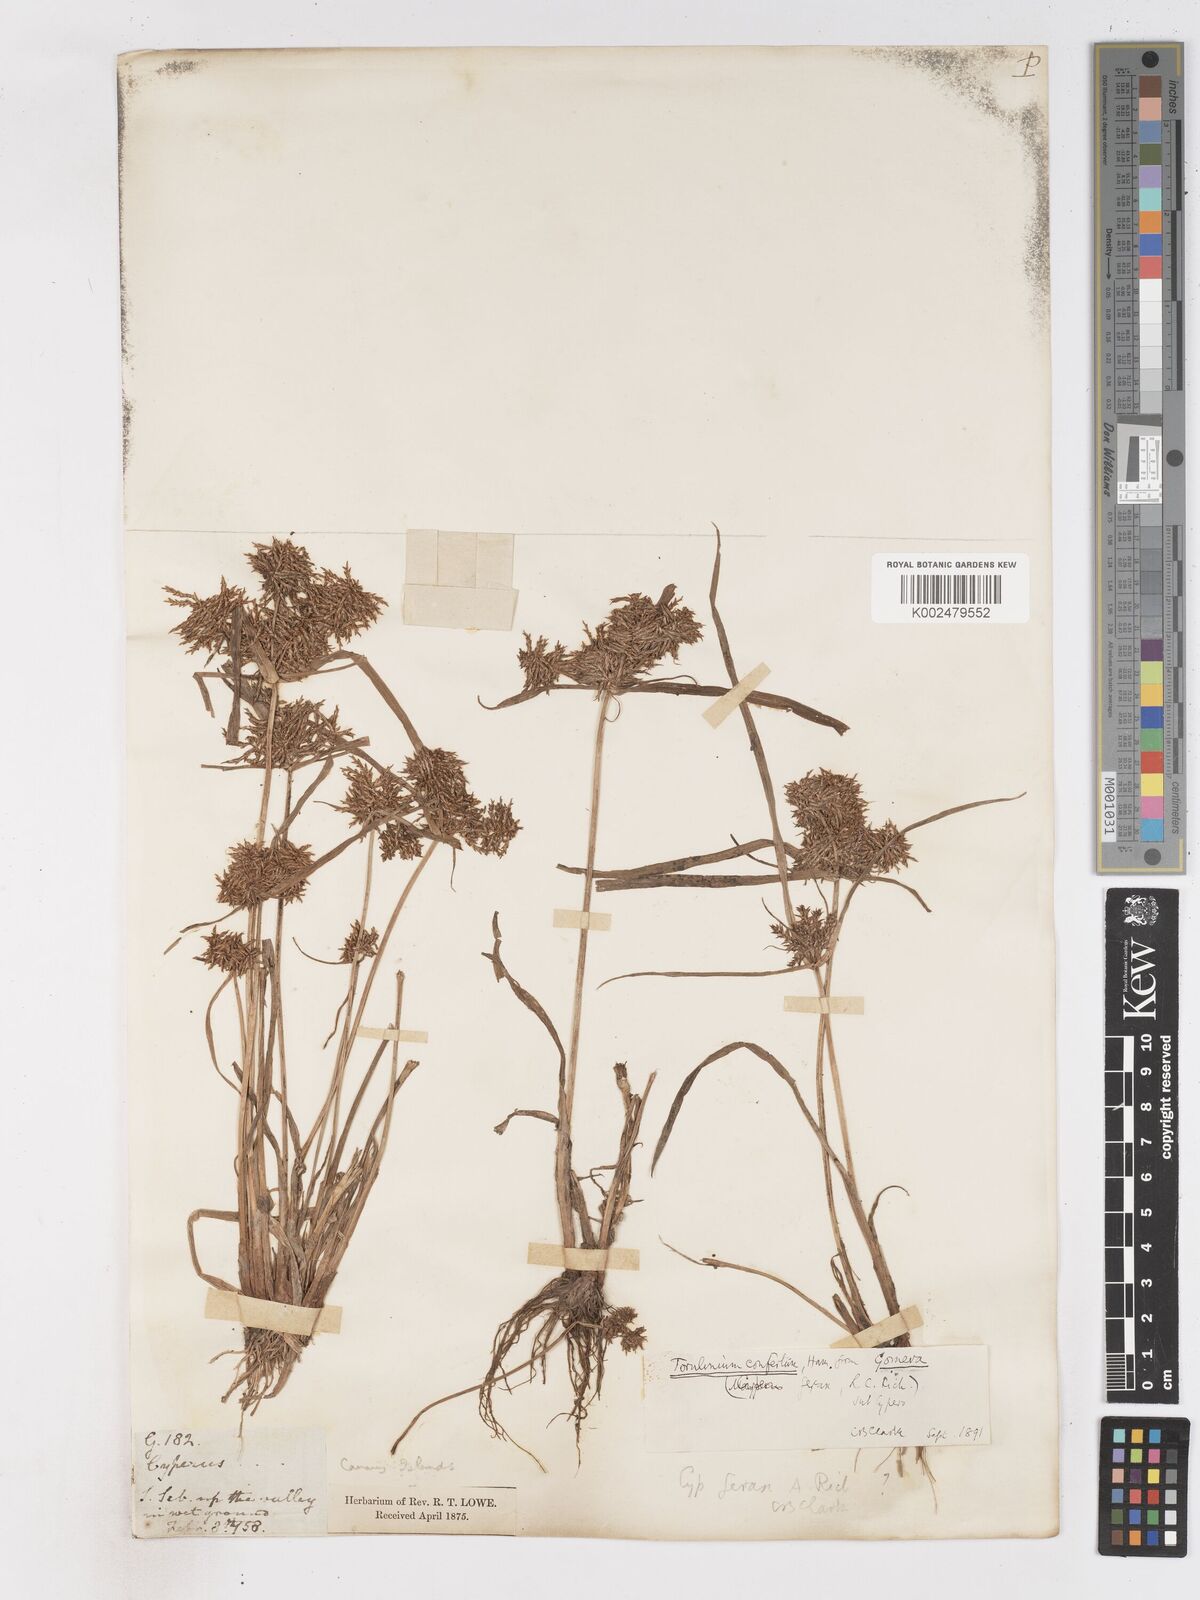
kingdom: Plantae
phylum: Tracheophyta
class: Liliopsida
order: Poales
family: Cyperaceae
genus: Cyperus
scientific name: Cyperus odoratus
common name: Fragrant flatsedge
